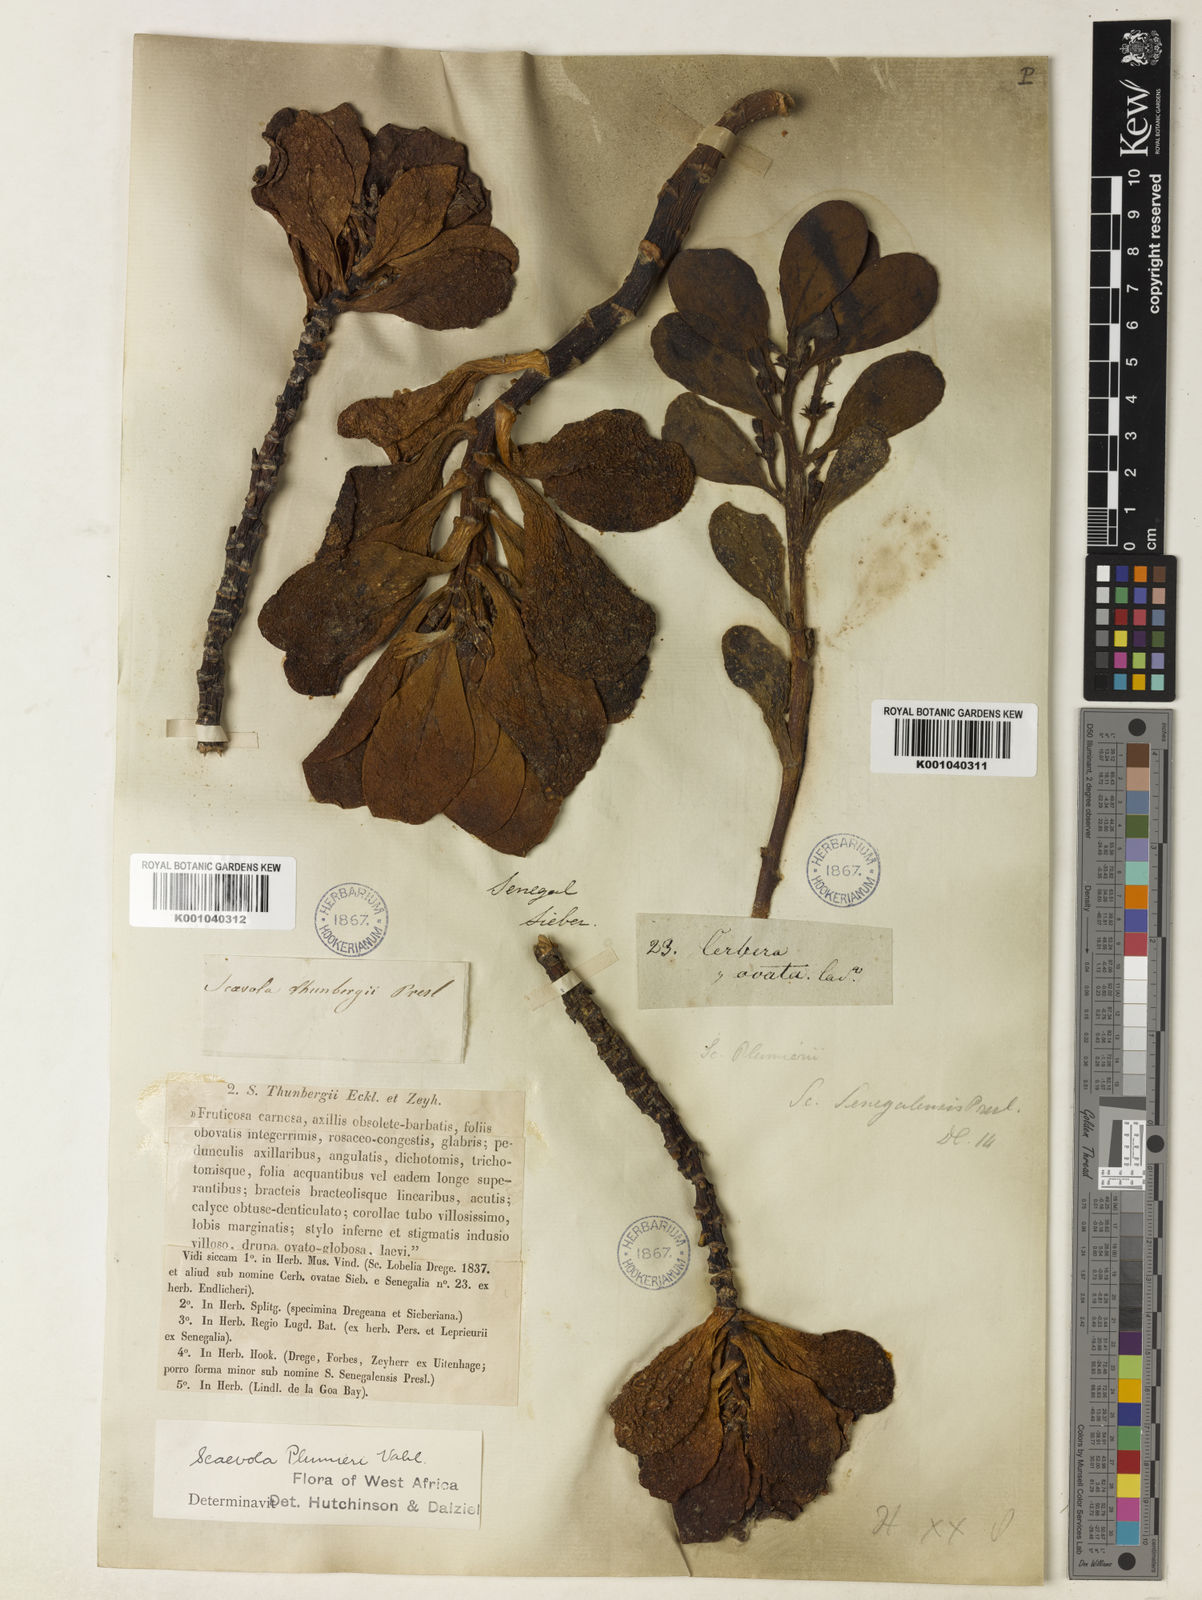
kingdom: Plantae
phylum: Tracheophyta
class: Magnoliopsida
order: Asterales
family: Goodeniaceae
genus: Scaevola
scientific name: Scaevola plumieri
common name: Gull feed
